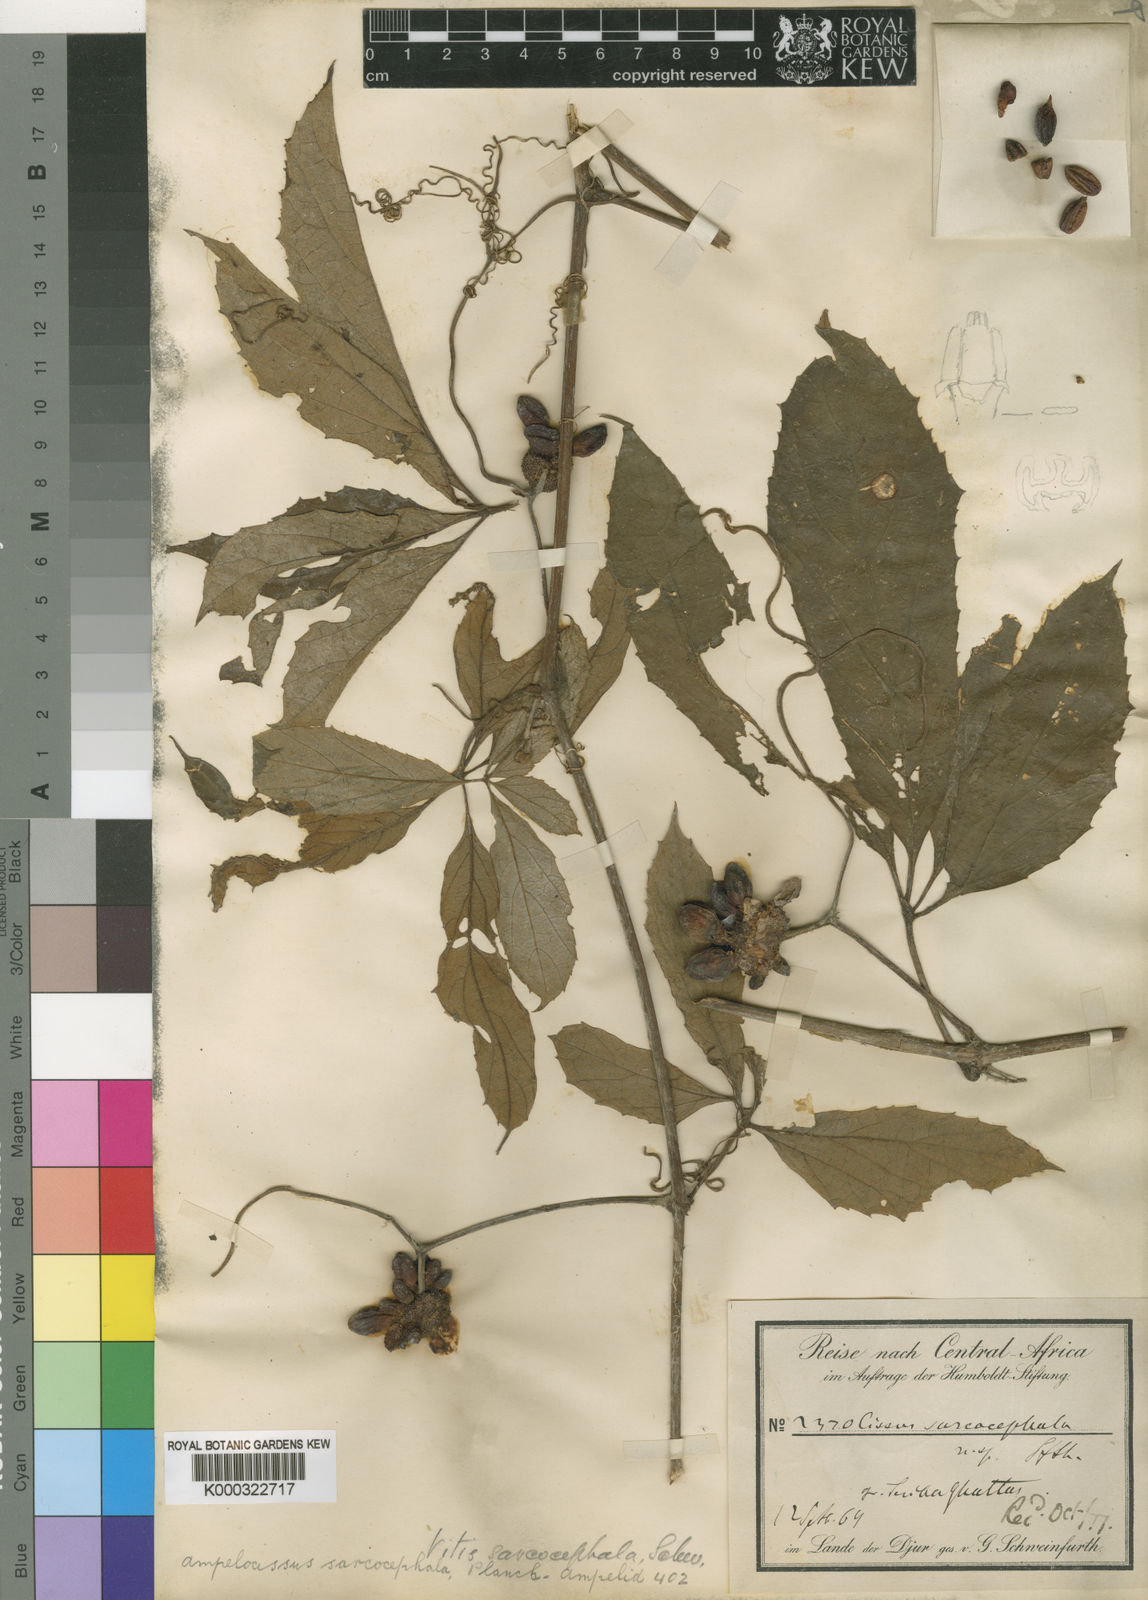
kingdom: Plantae
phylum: Tracheophyta
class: Magnoliopsida
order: Vitales
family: Vitaceae
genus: Ampelocissus
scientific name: Ampelocissus sarcocephala
